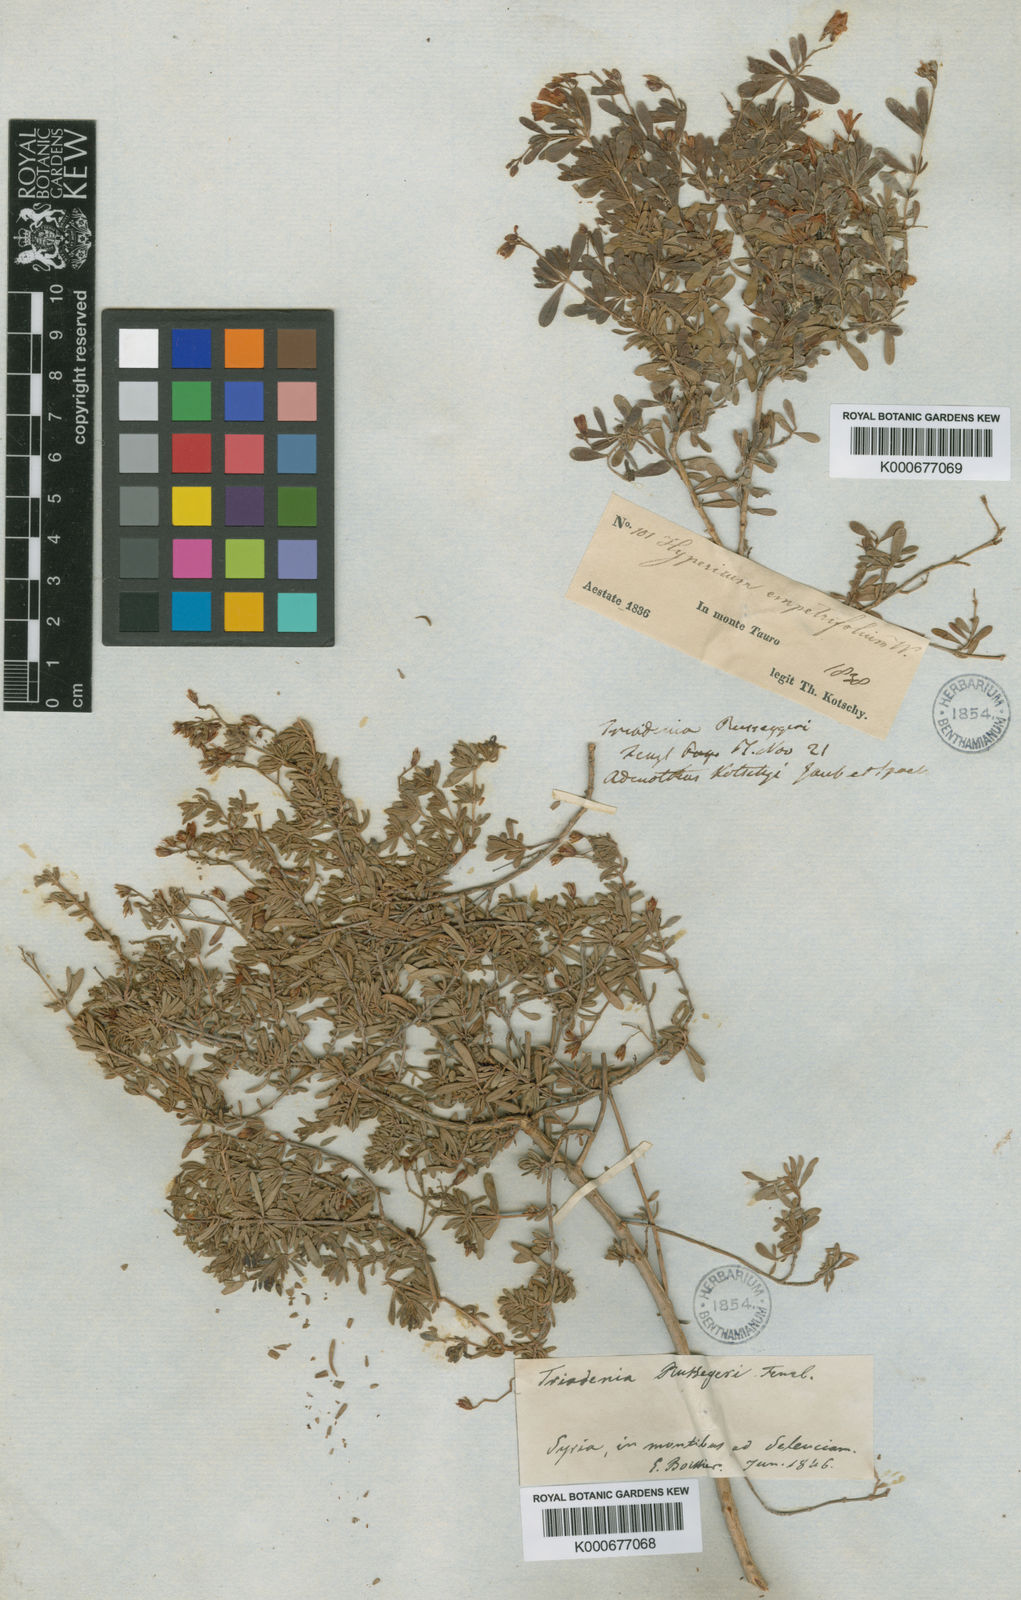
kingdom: Plantae
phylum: Tracheophyta
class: Magnoliopsida
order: Malpighiales
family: Hypericaceae
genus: Hypericum
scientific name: Hypericum russeggeri
